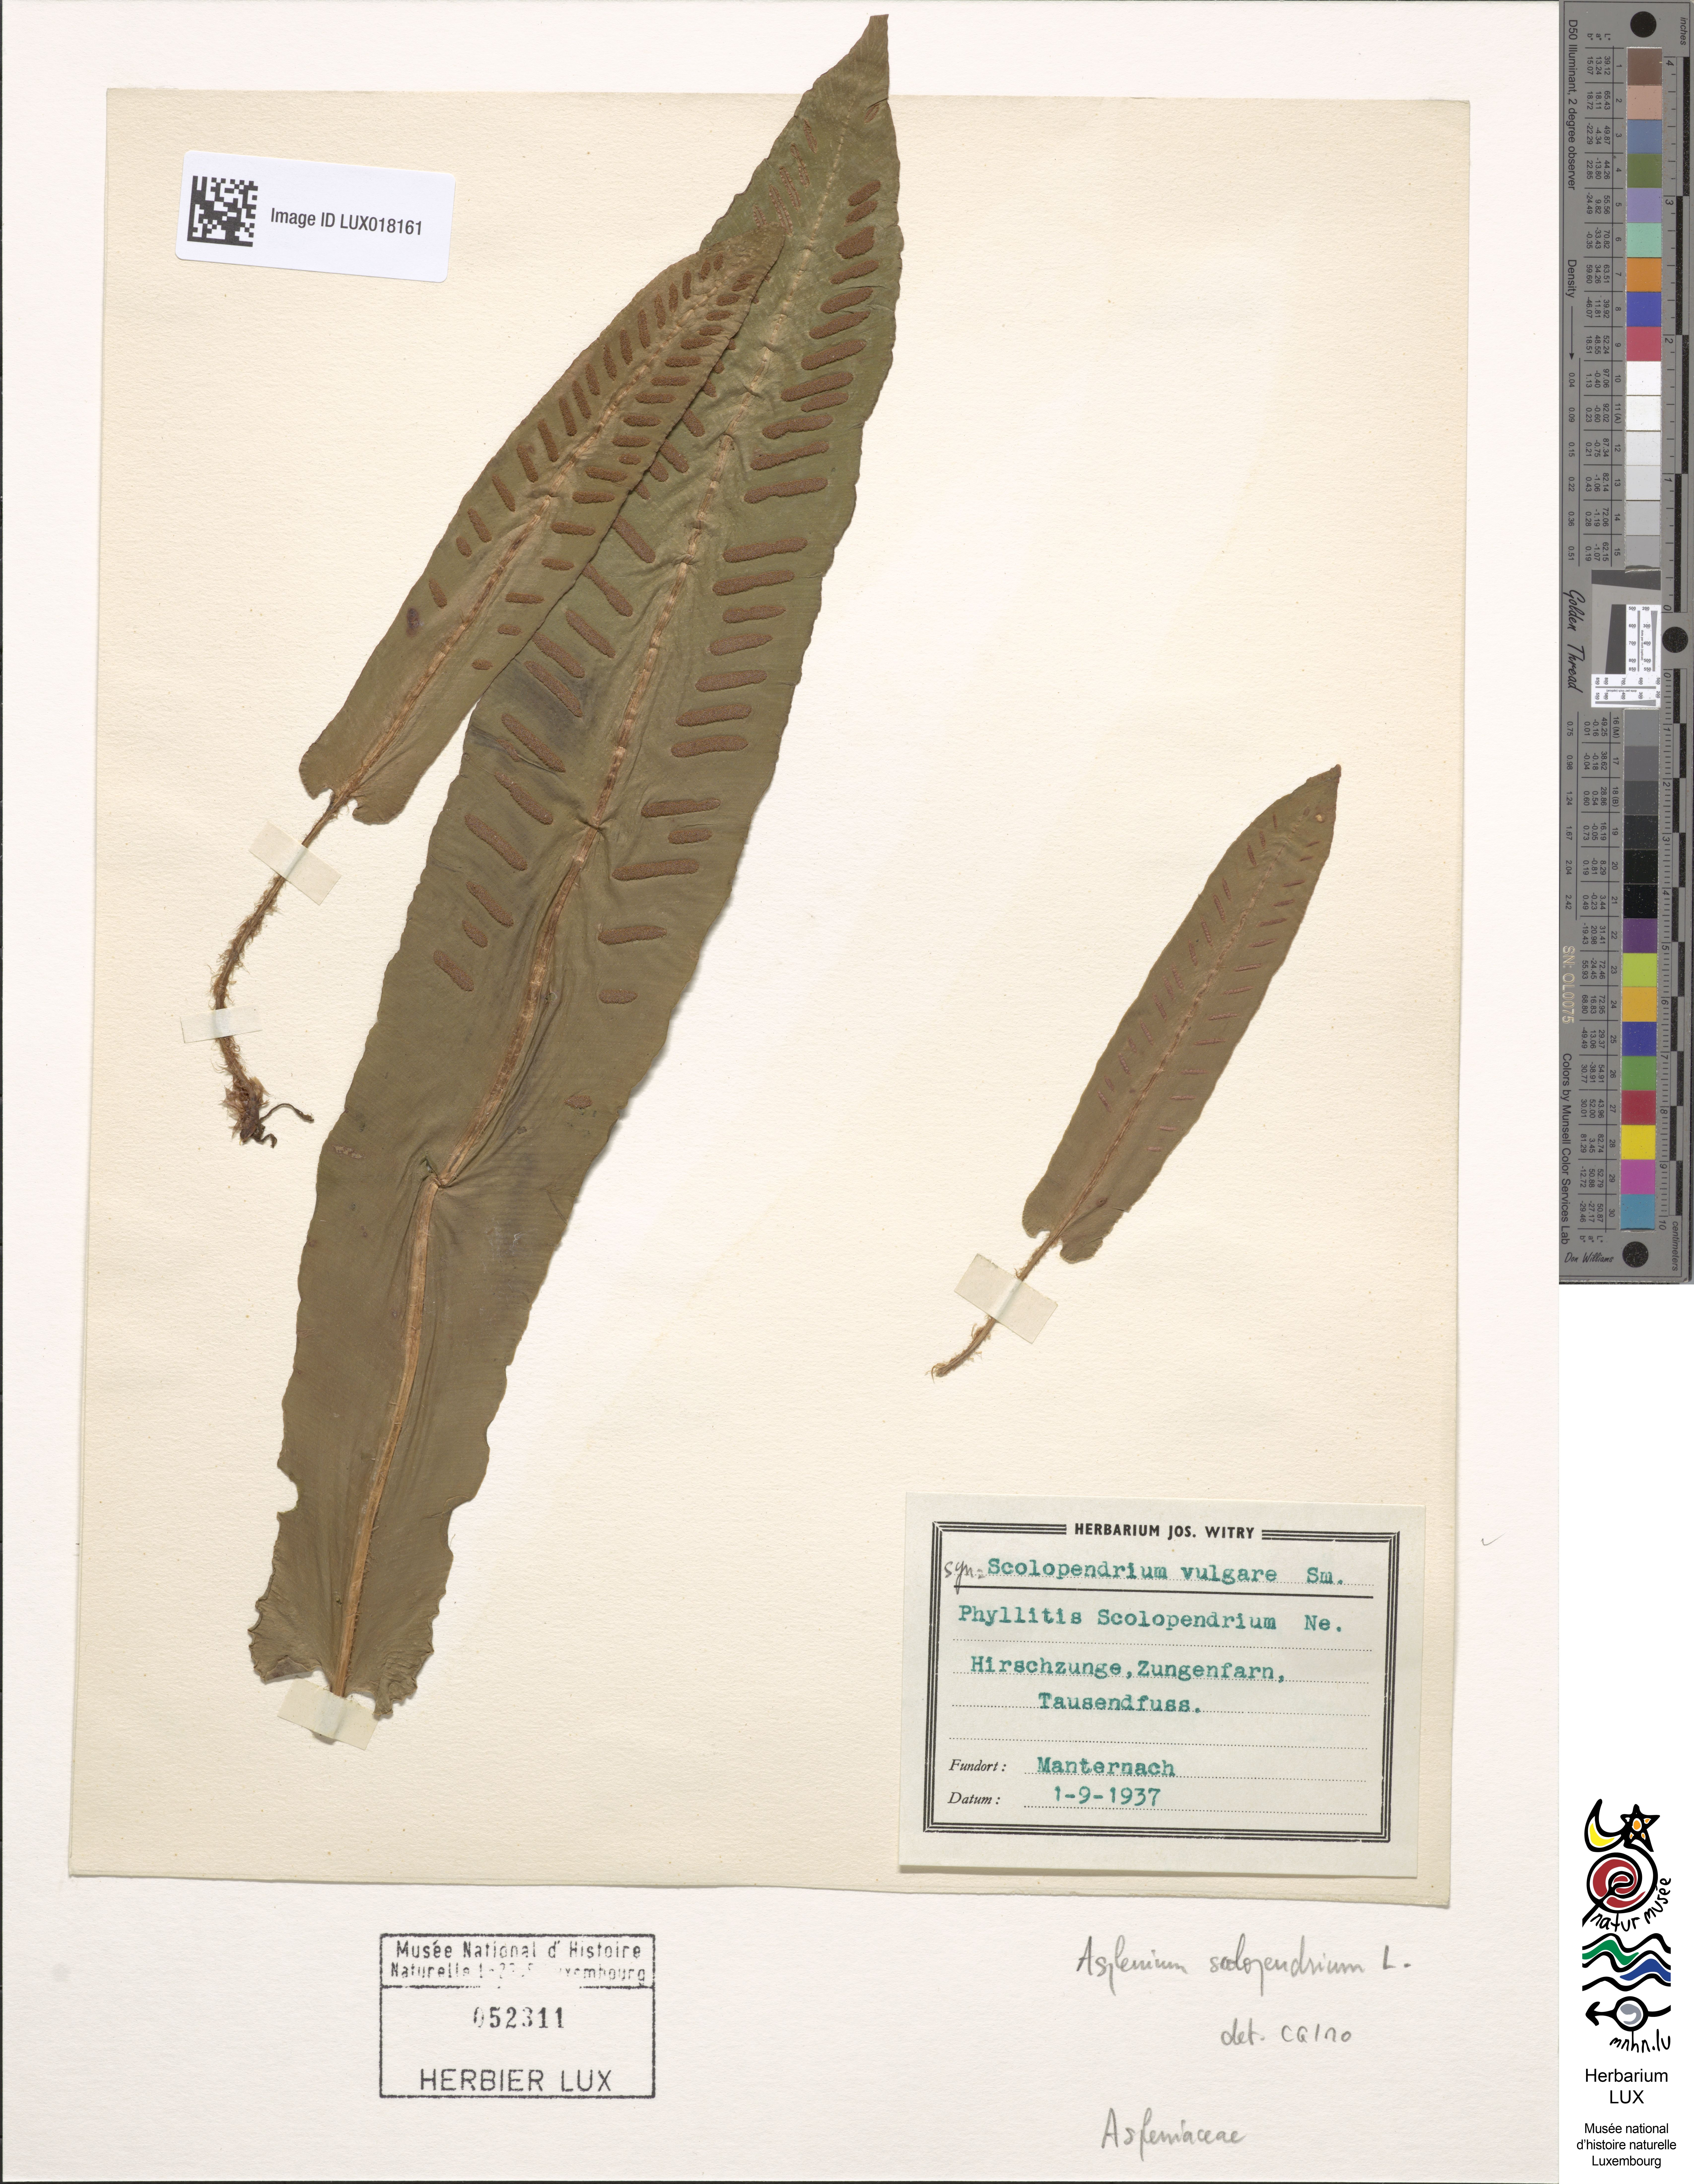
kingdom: Plantae
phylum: Tracheophyta
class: Polypodiopsida
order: Polypodiales
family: Aspleniaceae
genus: Asplenium
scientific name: Asplenium scolopendrium
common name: Hart's-tongue fern
